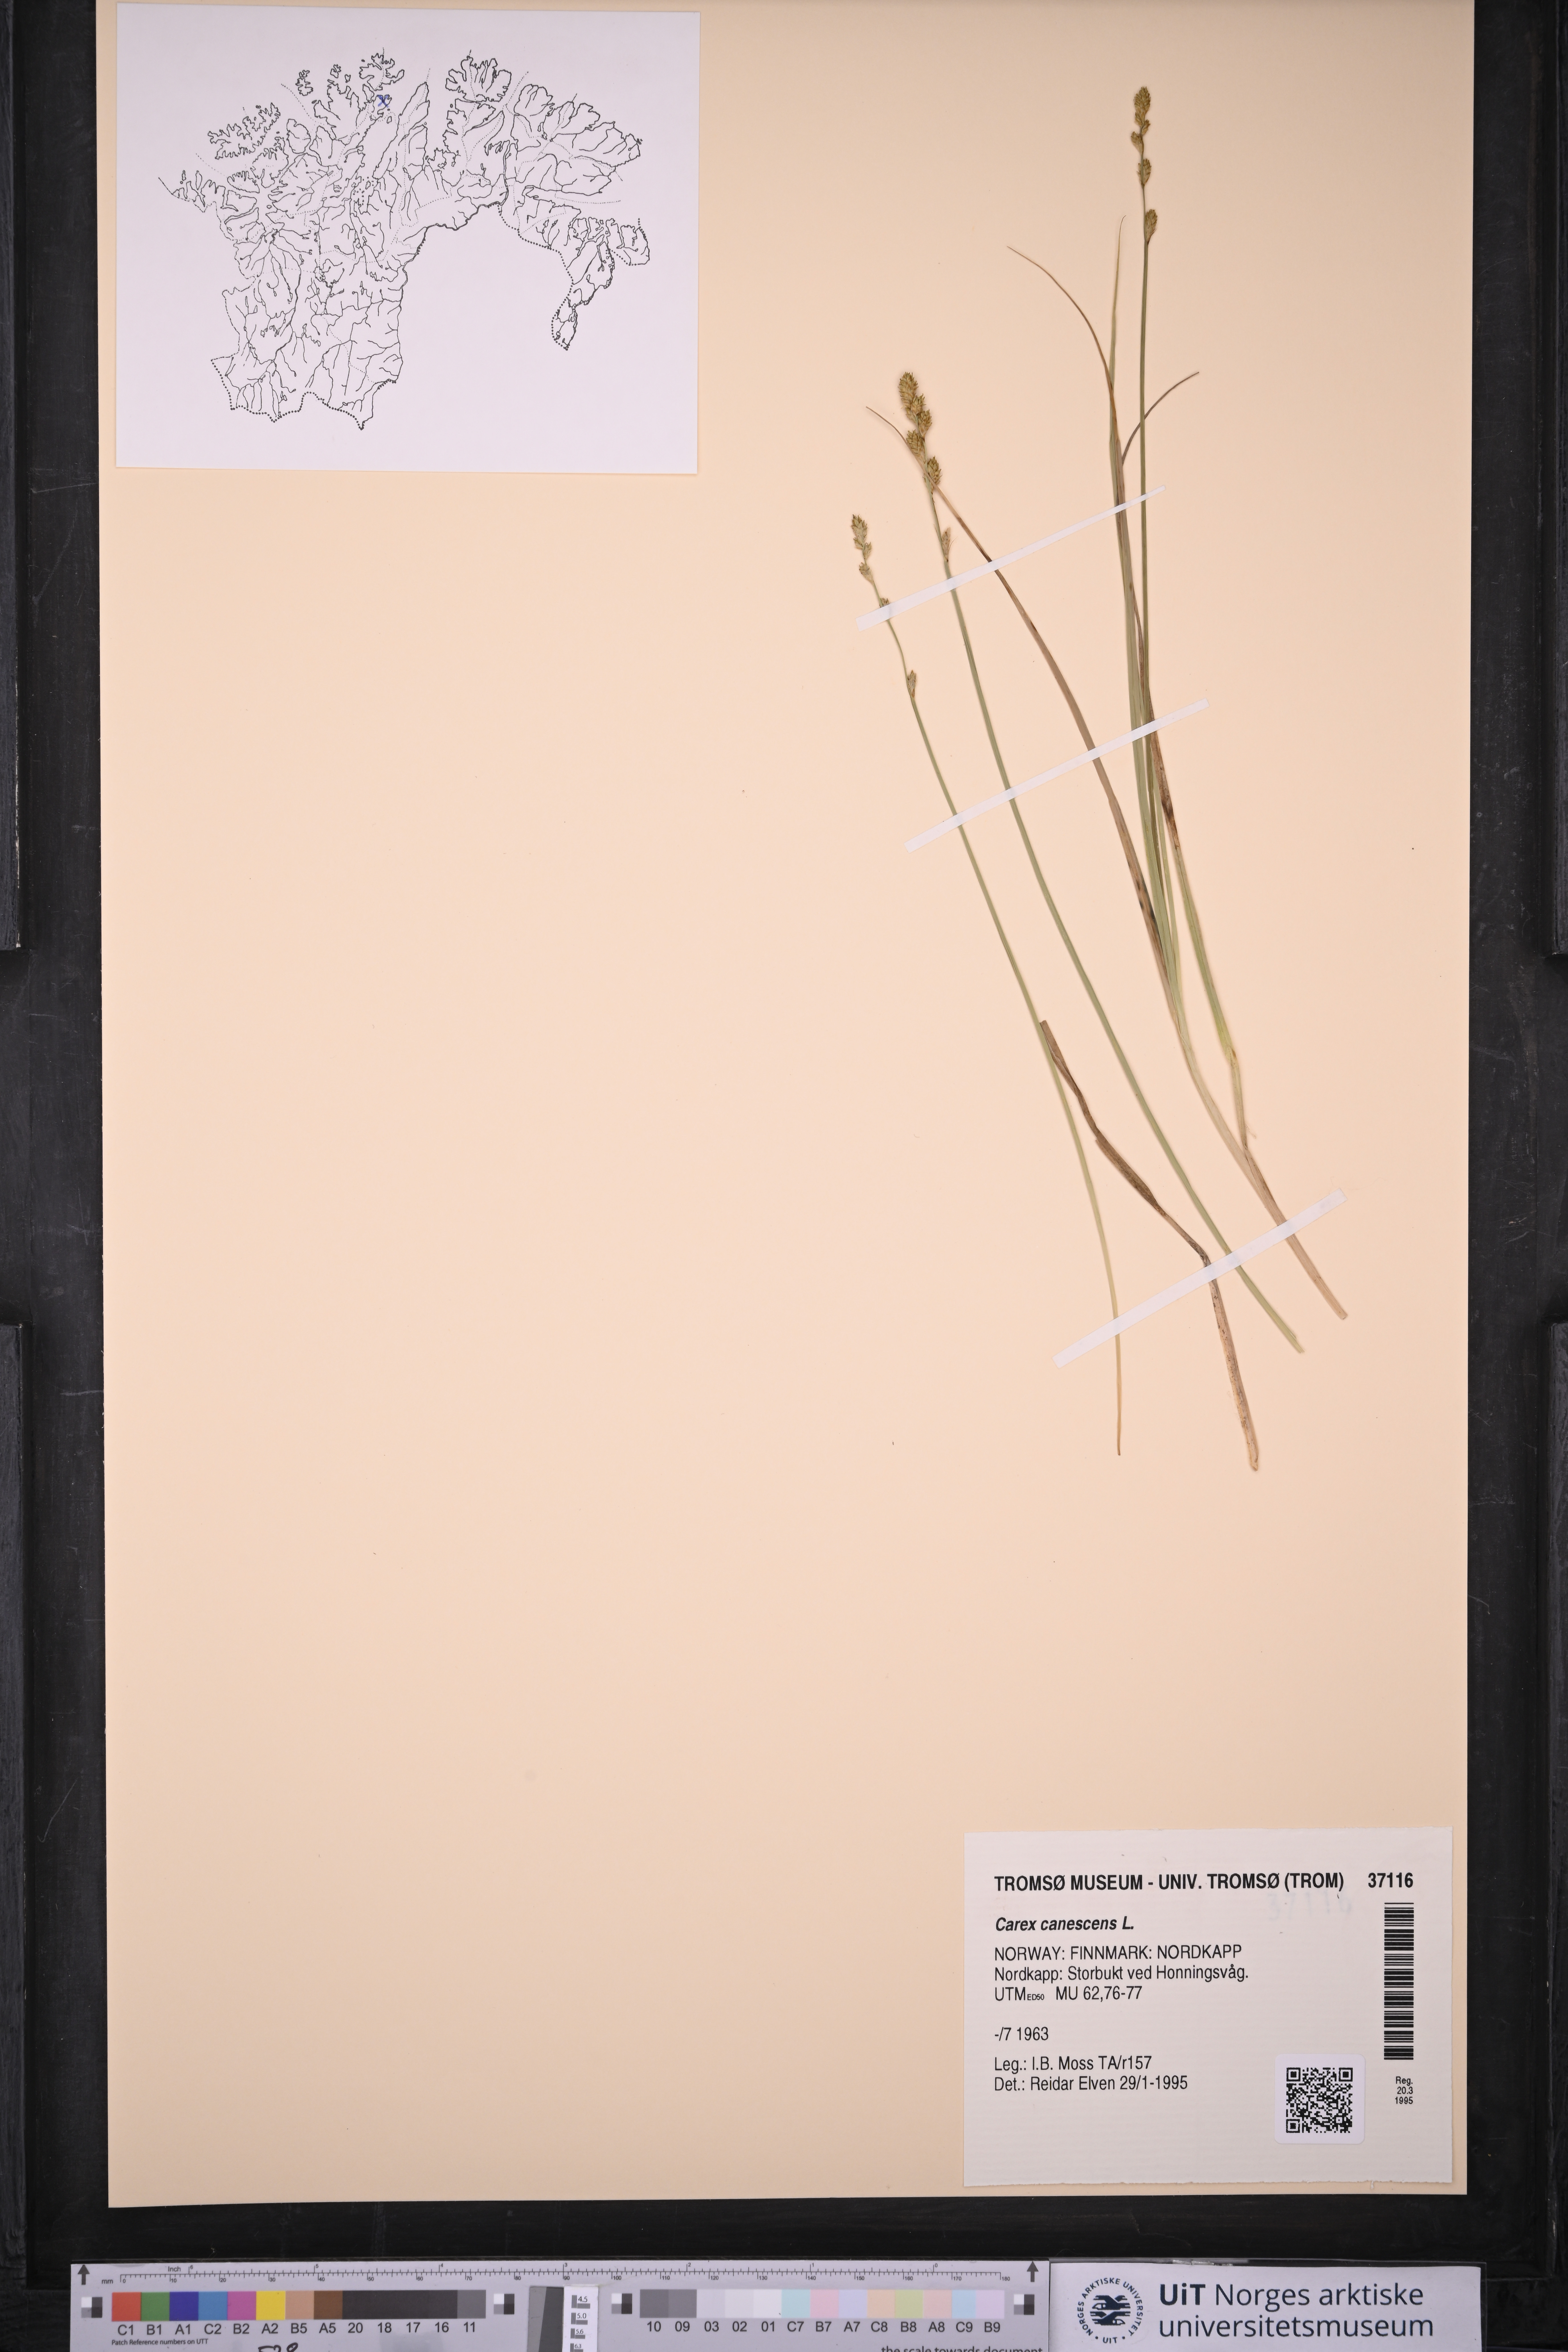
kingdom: Plantae
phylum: Tracheophyta
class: Liliopsida
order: Poales
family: Cyperaceae
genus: Carex
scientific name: Carex canescens
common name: White sedge
